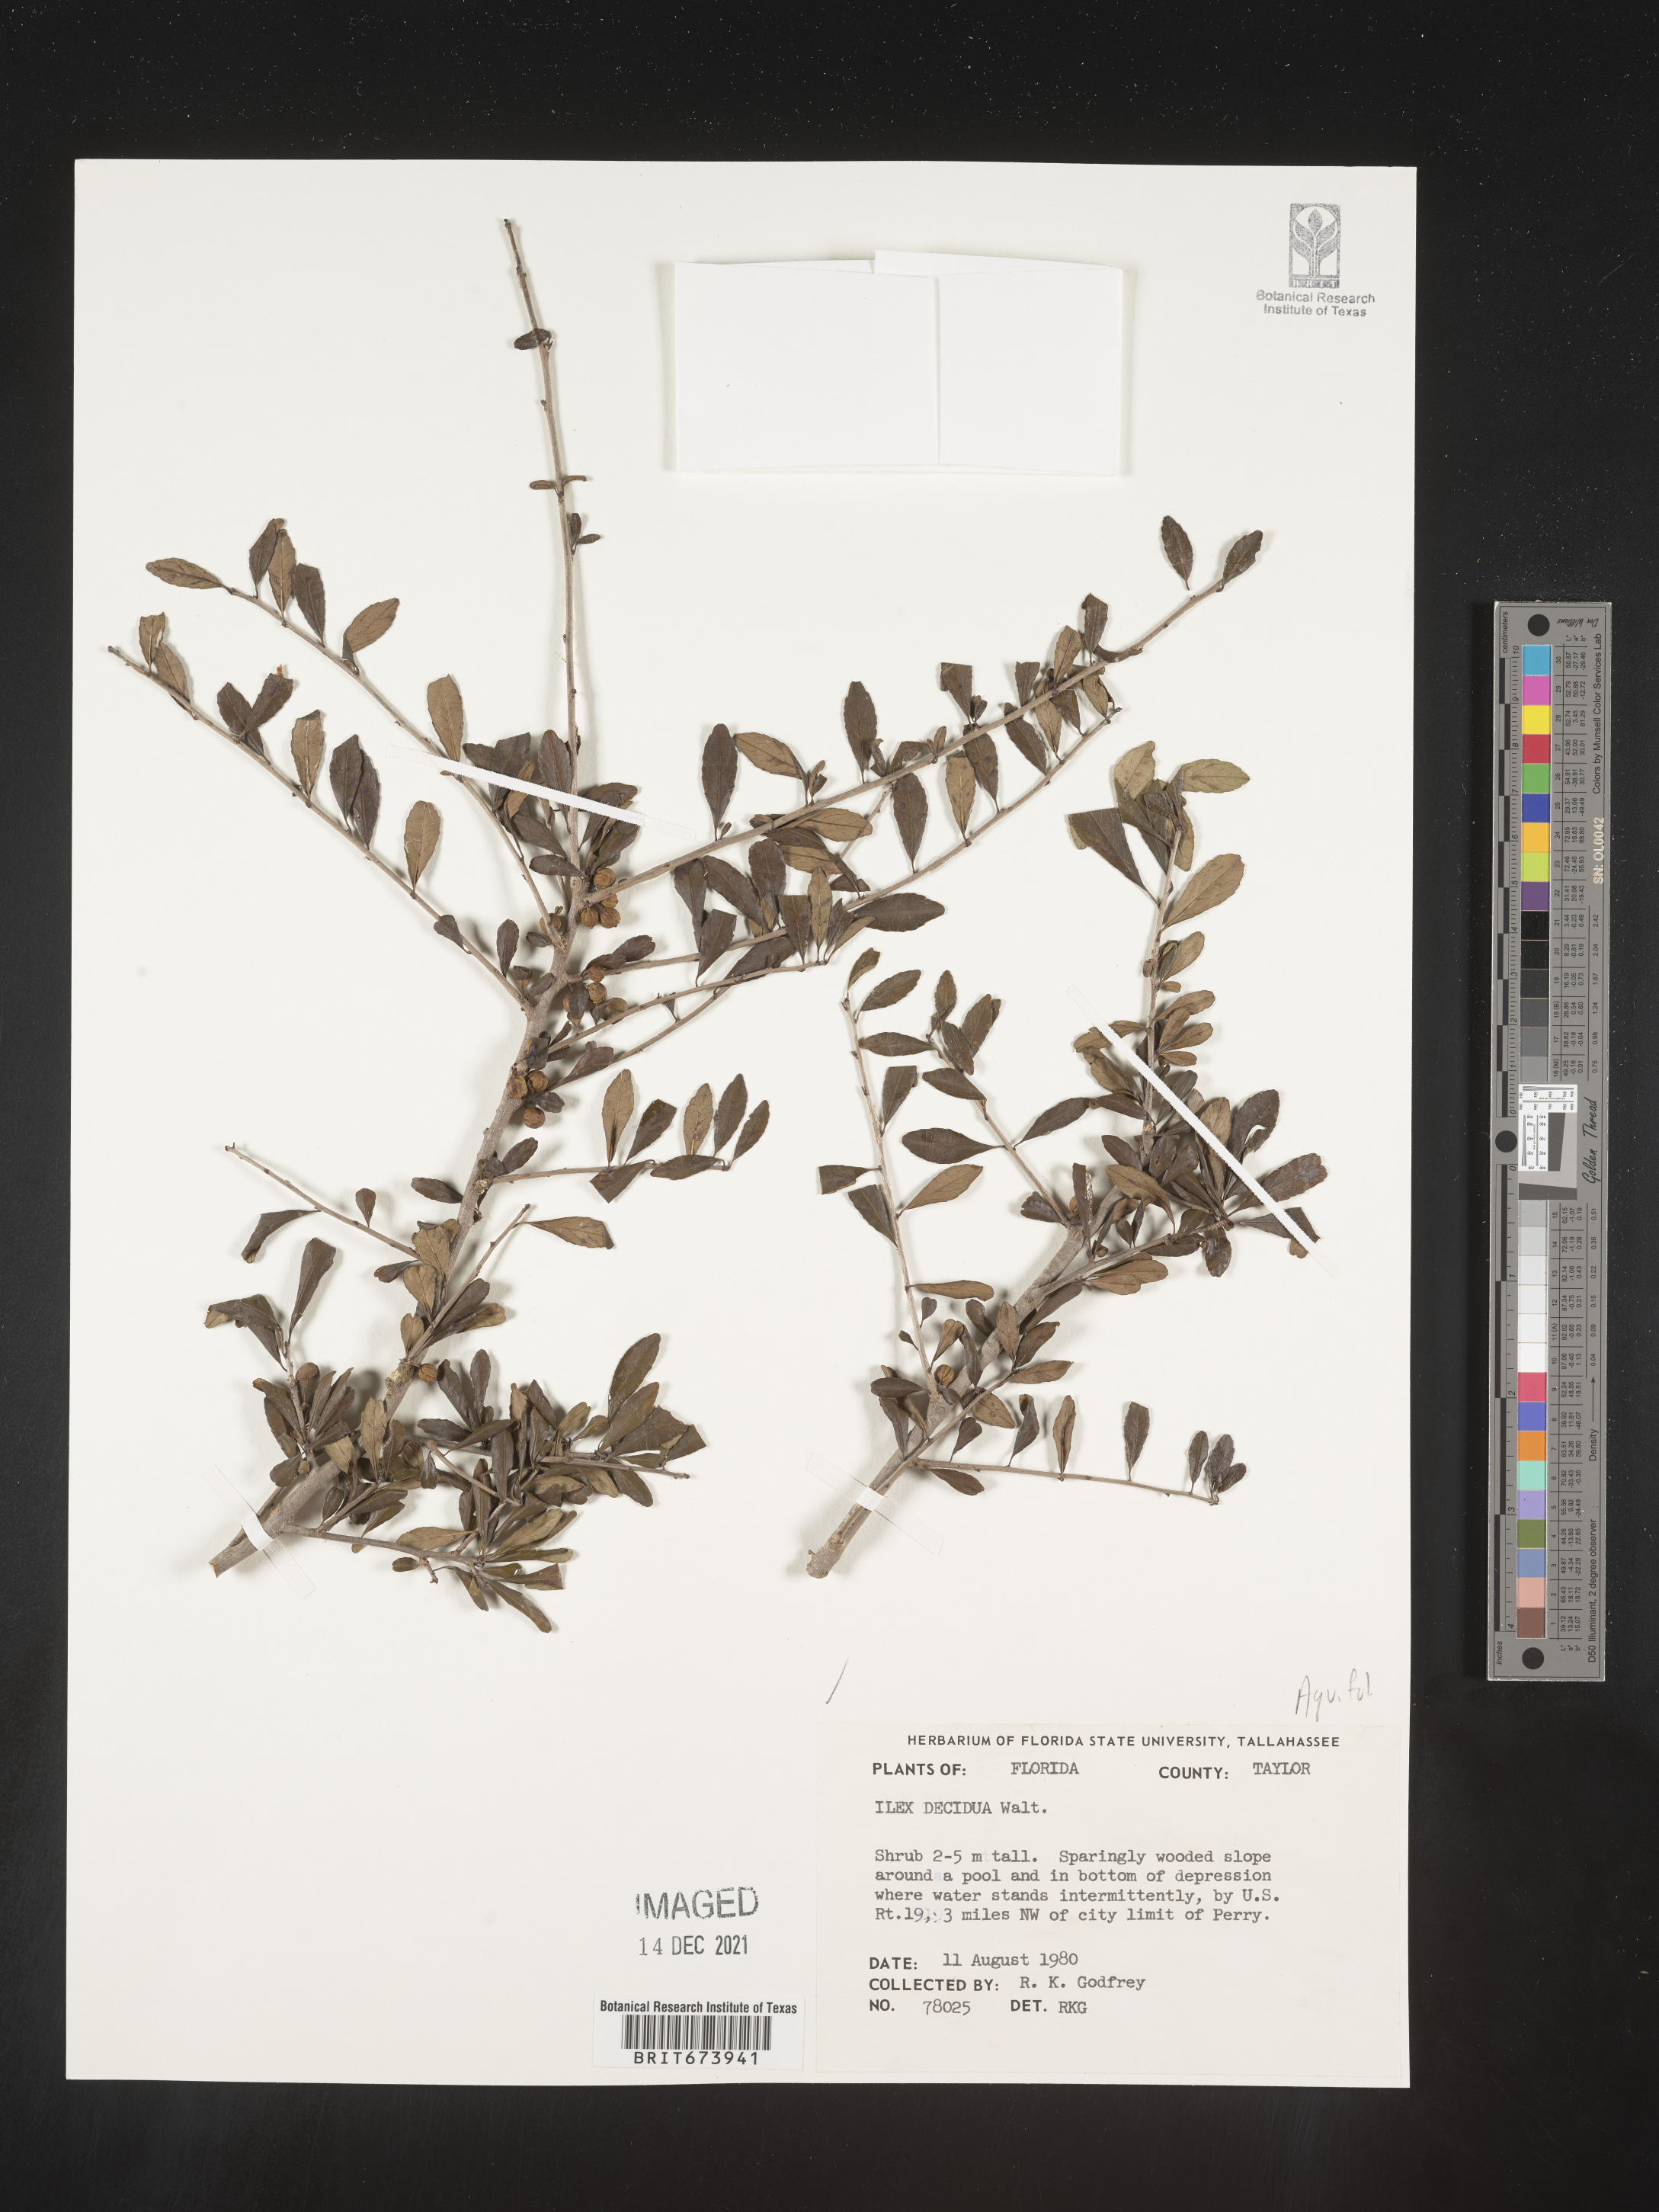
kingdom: Plantae
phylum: Tracheophyta
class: Magnoliopsida
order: Aquifoliales
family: Aquifoliaceae
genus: Ilex
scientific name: Ilex decidua
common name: Possum-haw
